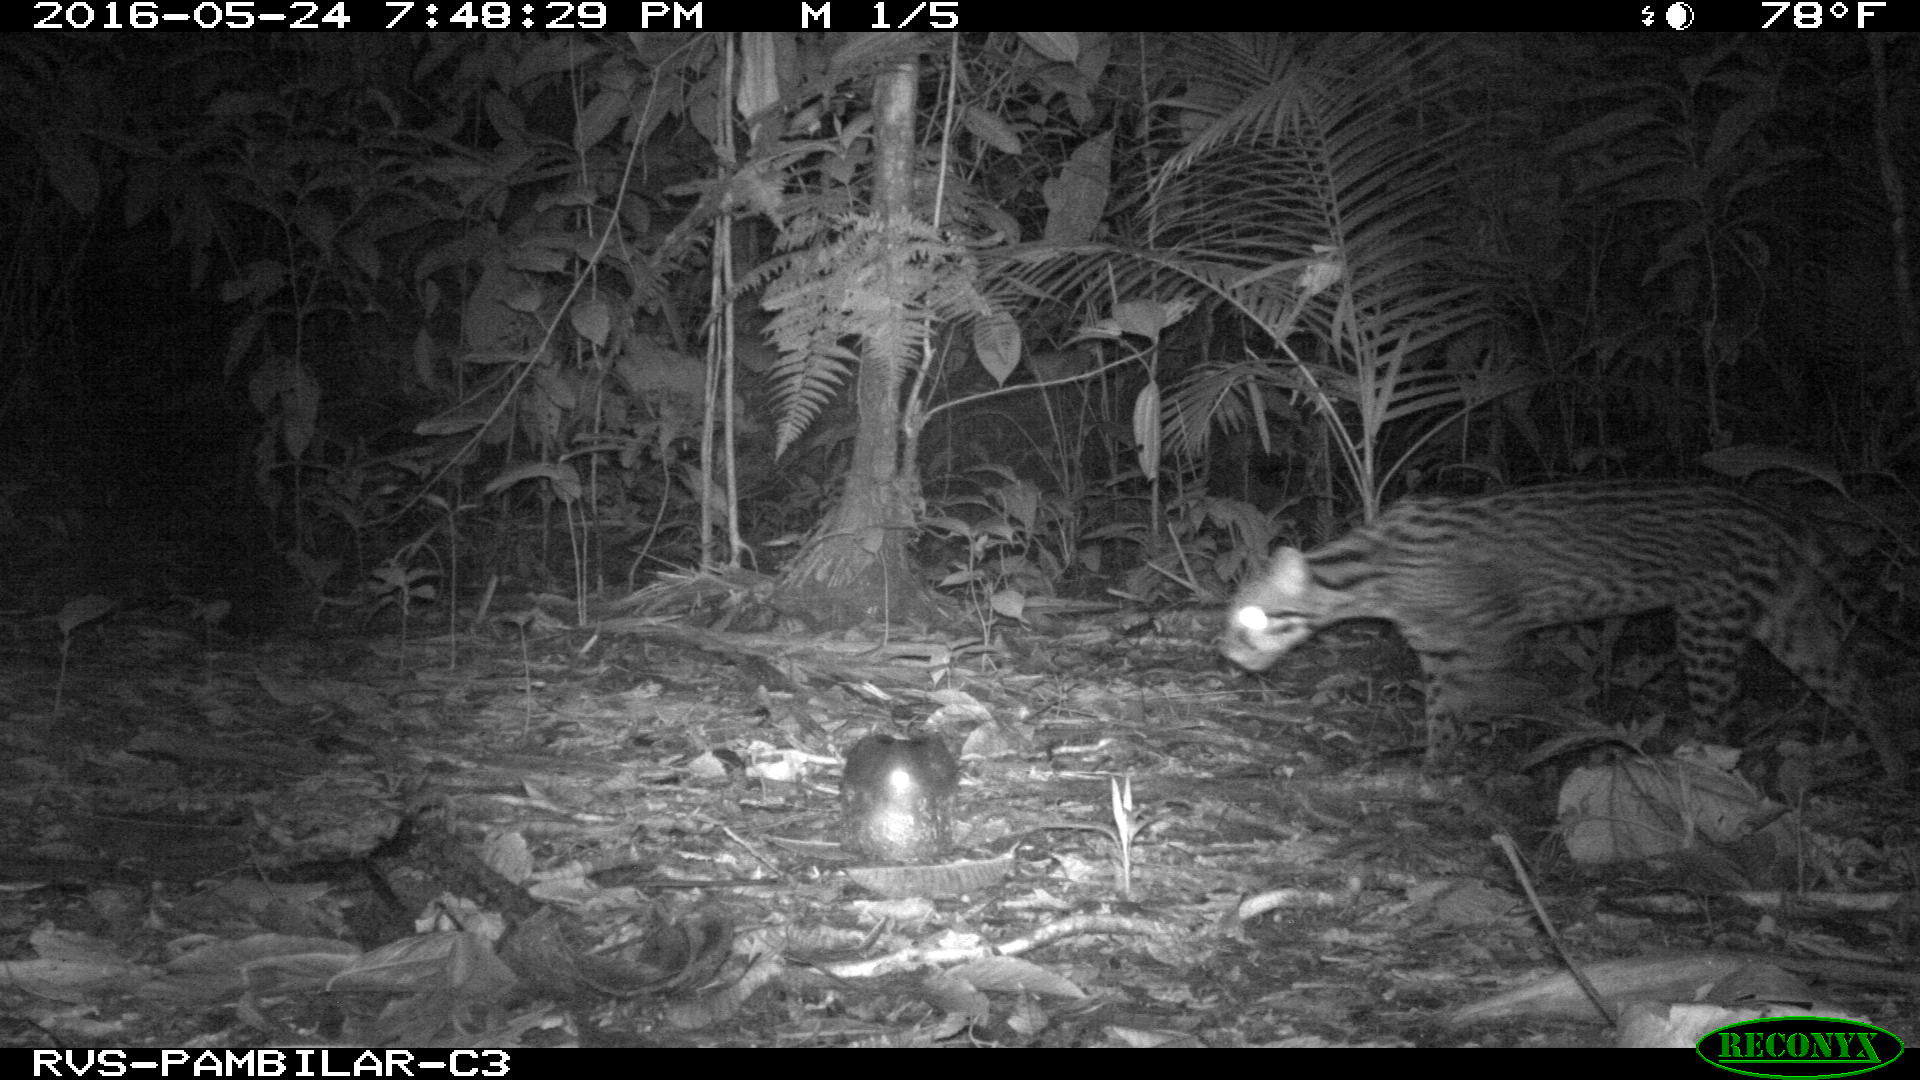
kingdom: Animalia
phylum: Chordata
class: Mammalia
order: Carnivora
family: Felidae
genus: Leopardus
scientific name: Leopardus pardalis
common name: Ocelot
